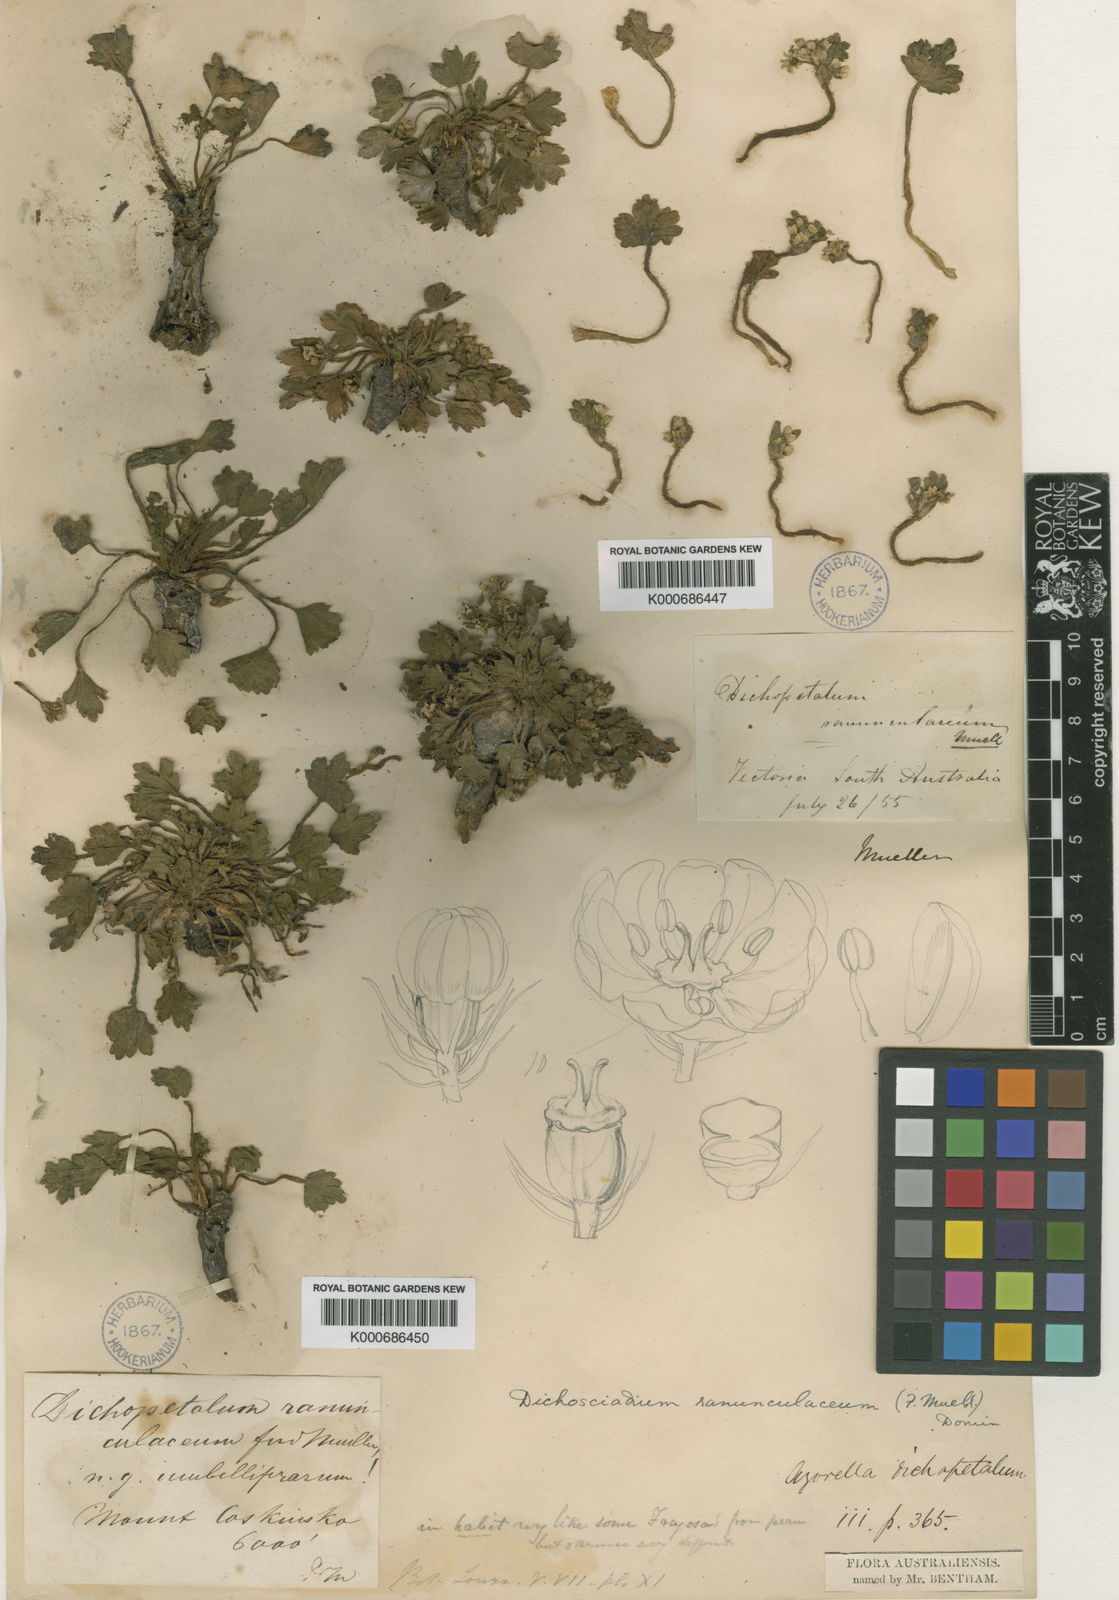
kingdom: Plantae
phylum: Tracheophyta
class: Magnoliopsida
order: Apiales
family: Apiaceae
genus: Dichosciadium
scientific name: Dichosciadium ranunculaceum
